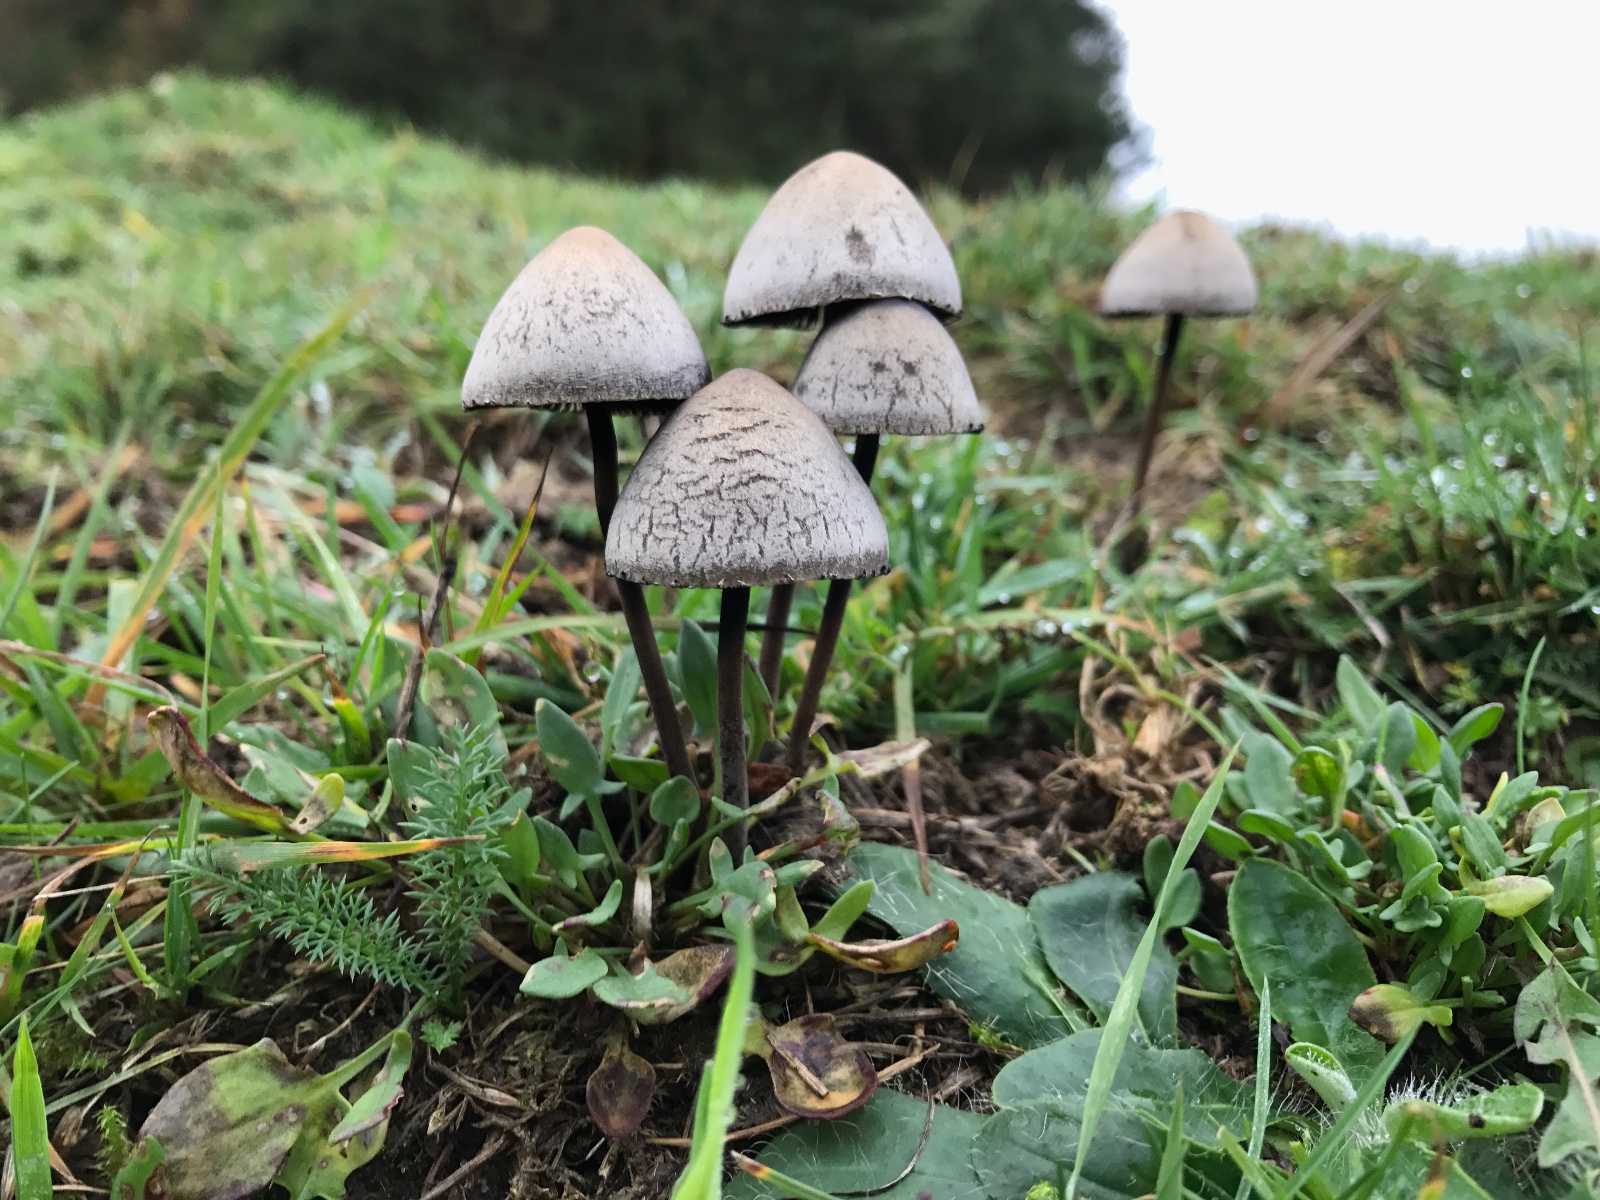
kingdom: Fungi
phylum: Basidiomycota
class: Agaricomycetes
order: Agaricales
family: Bolbitiaceae
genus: Panaeolus
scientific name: Panaeolus papilionaceus
